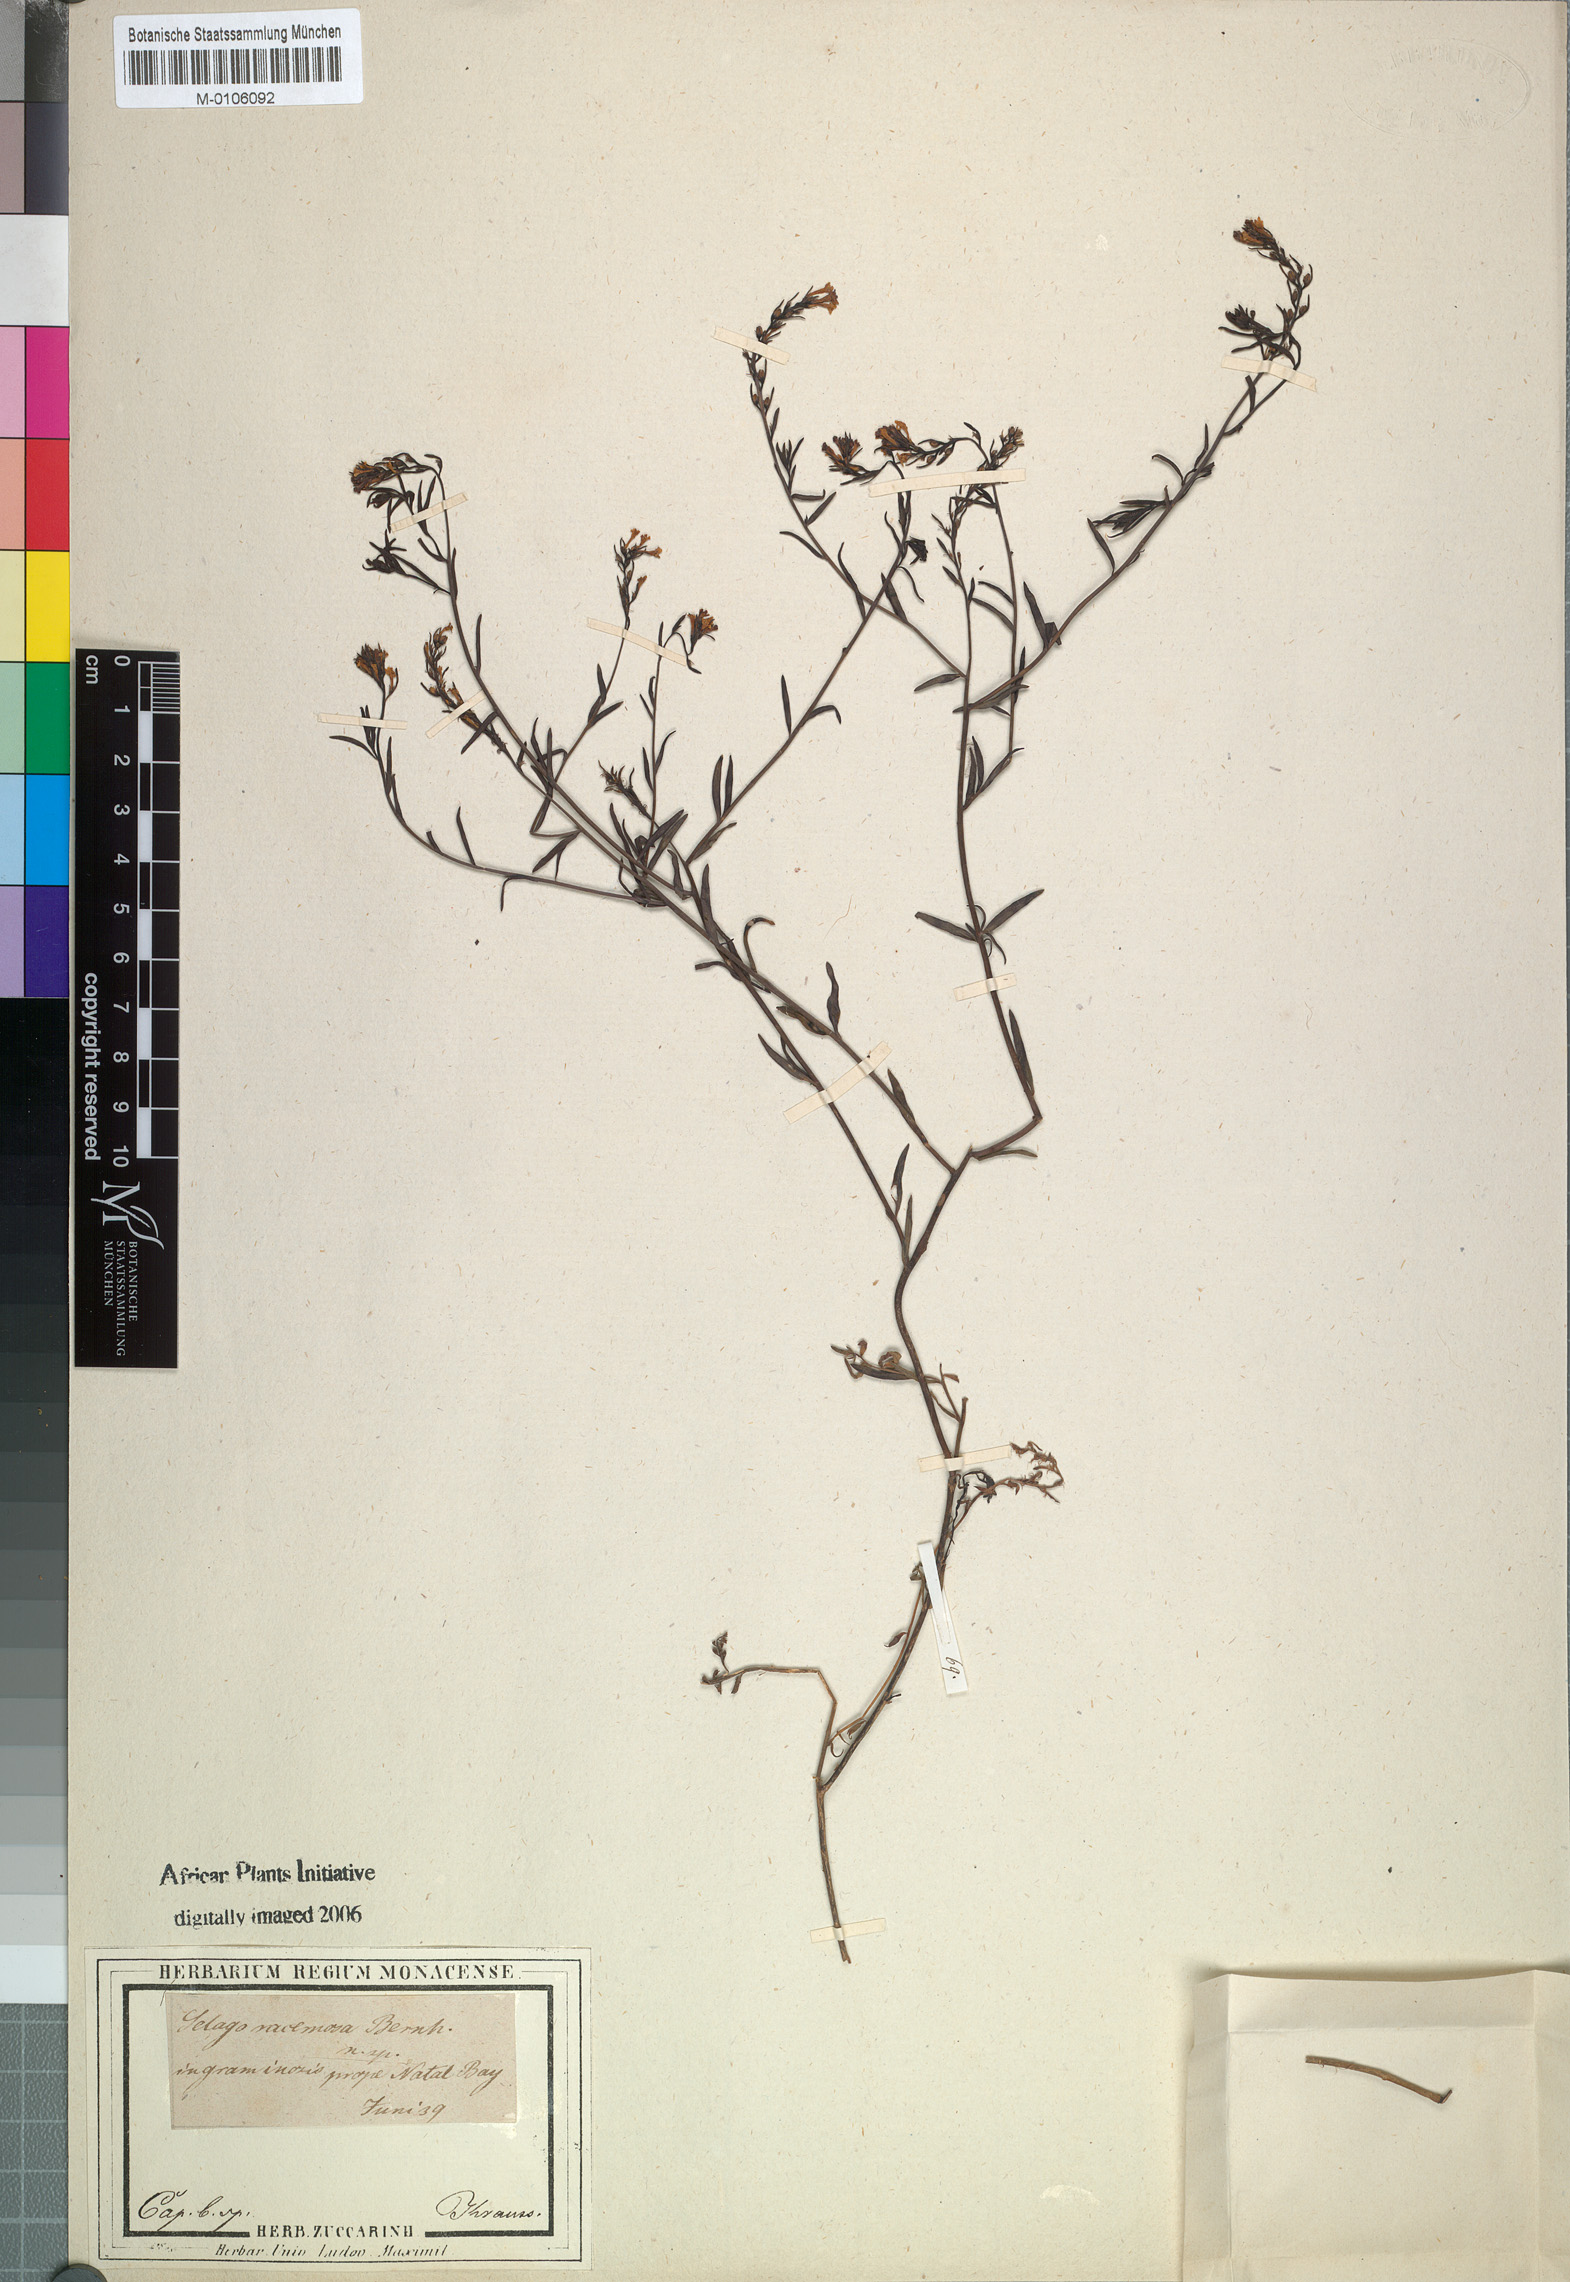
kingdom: Plantae
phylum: Tracheophyta
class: Magnoliopsida
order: Lamiales
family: Scrophulariaceae
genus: Selago
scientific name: Selago trinervia
